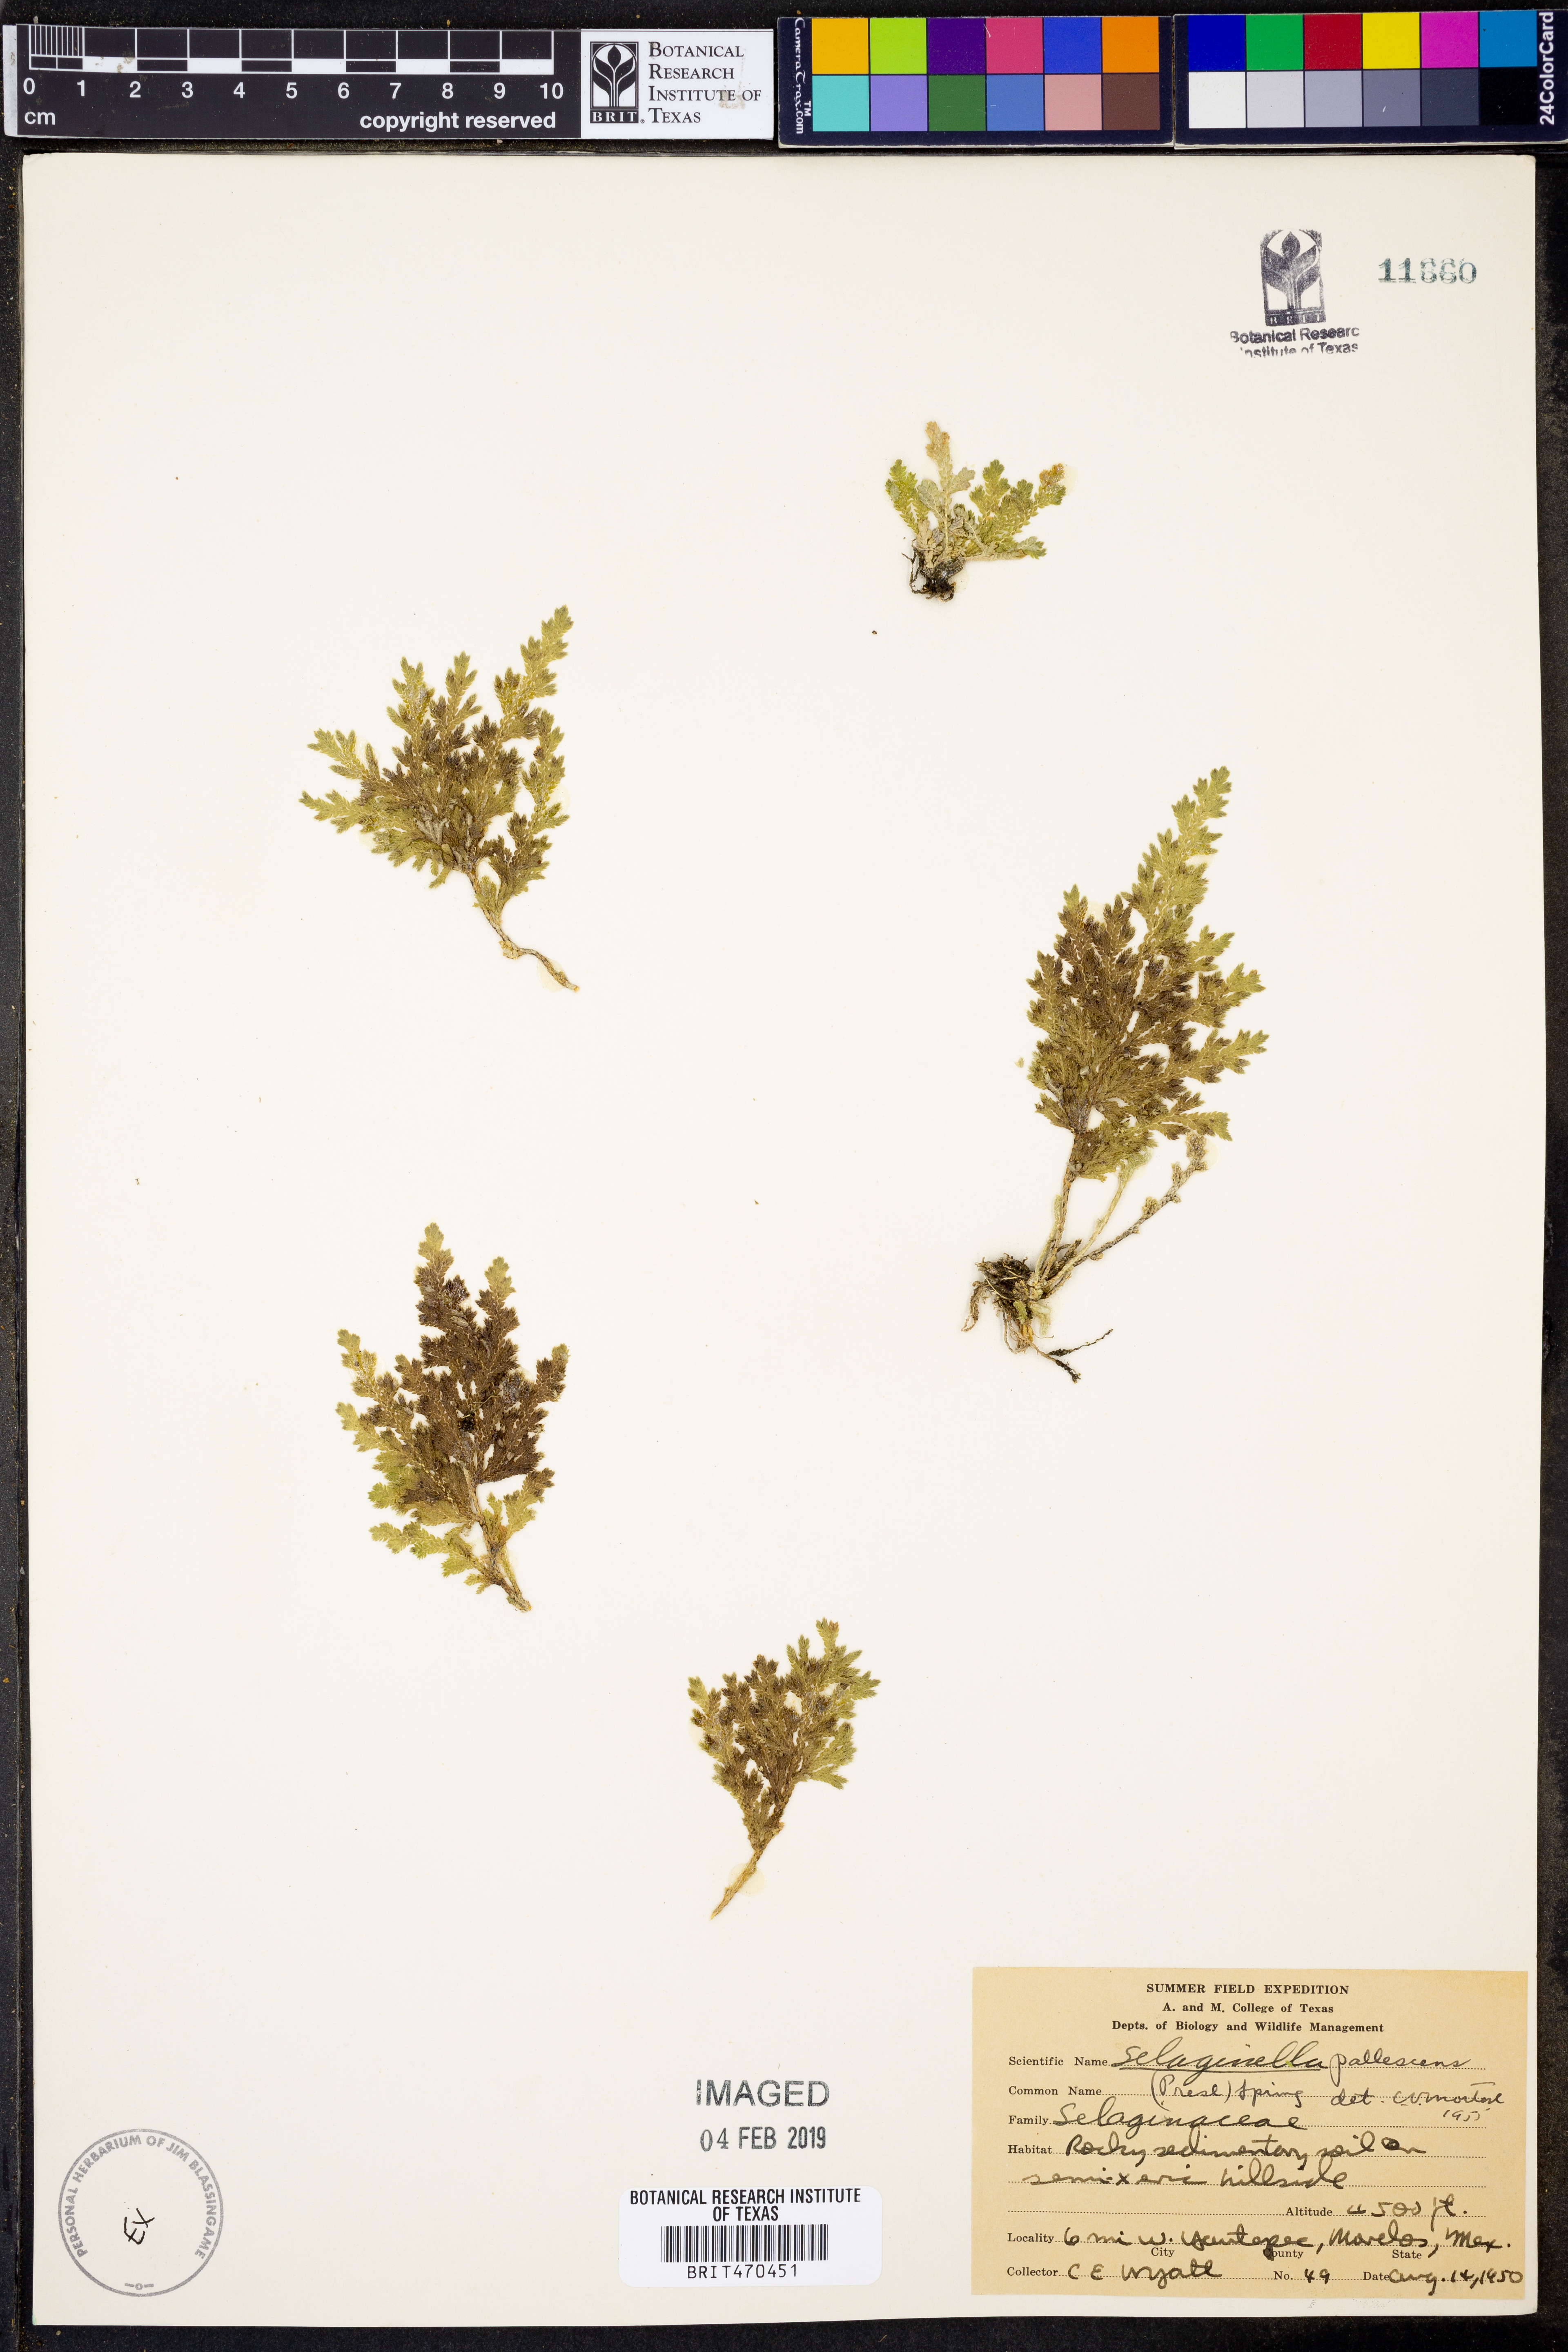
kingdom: Plantae
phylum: Tracheophyta
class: Lycopodiopsida
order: Selaginellales
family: Selaginellaceae
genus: Selaginella
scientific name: Selaginella pallescens
